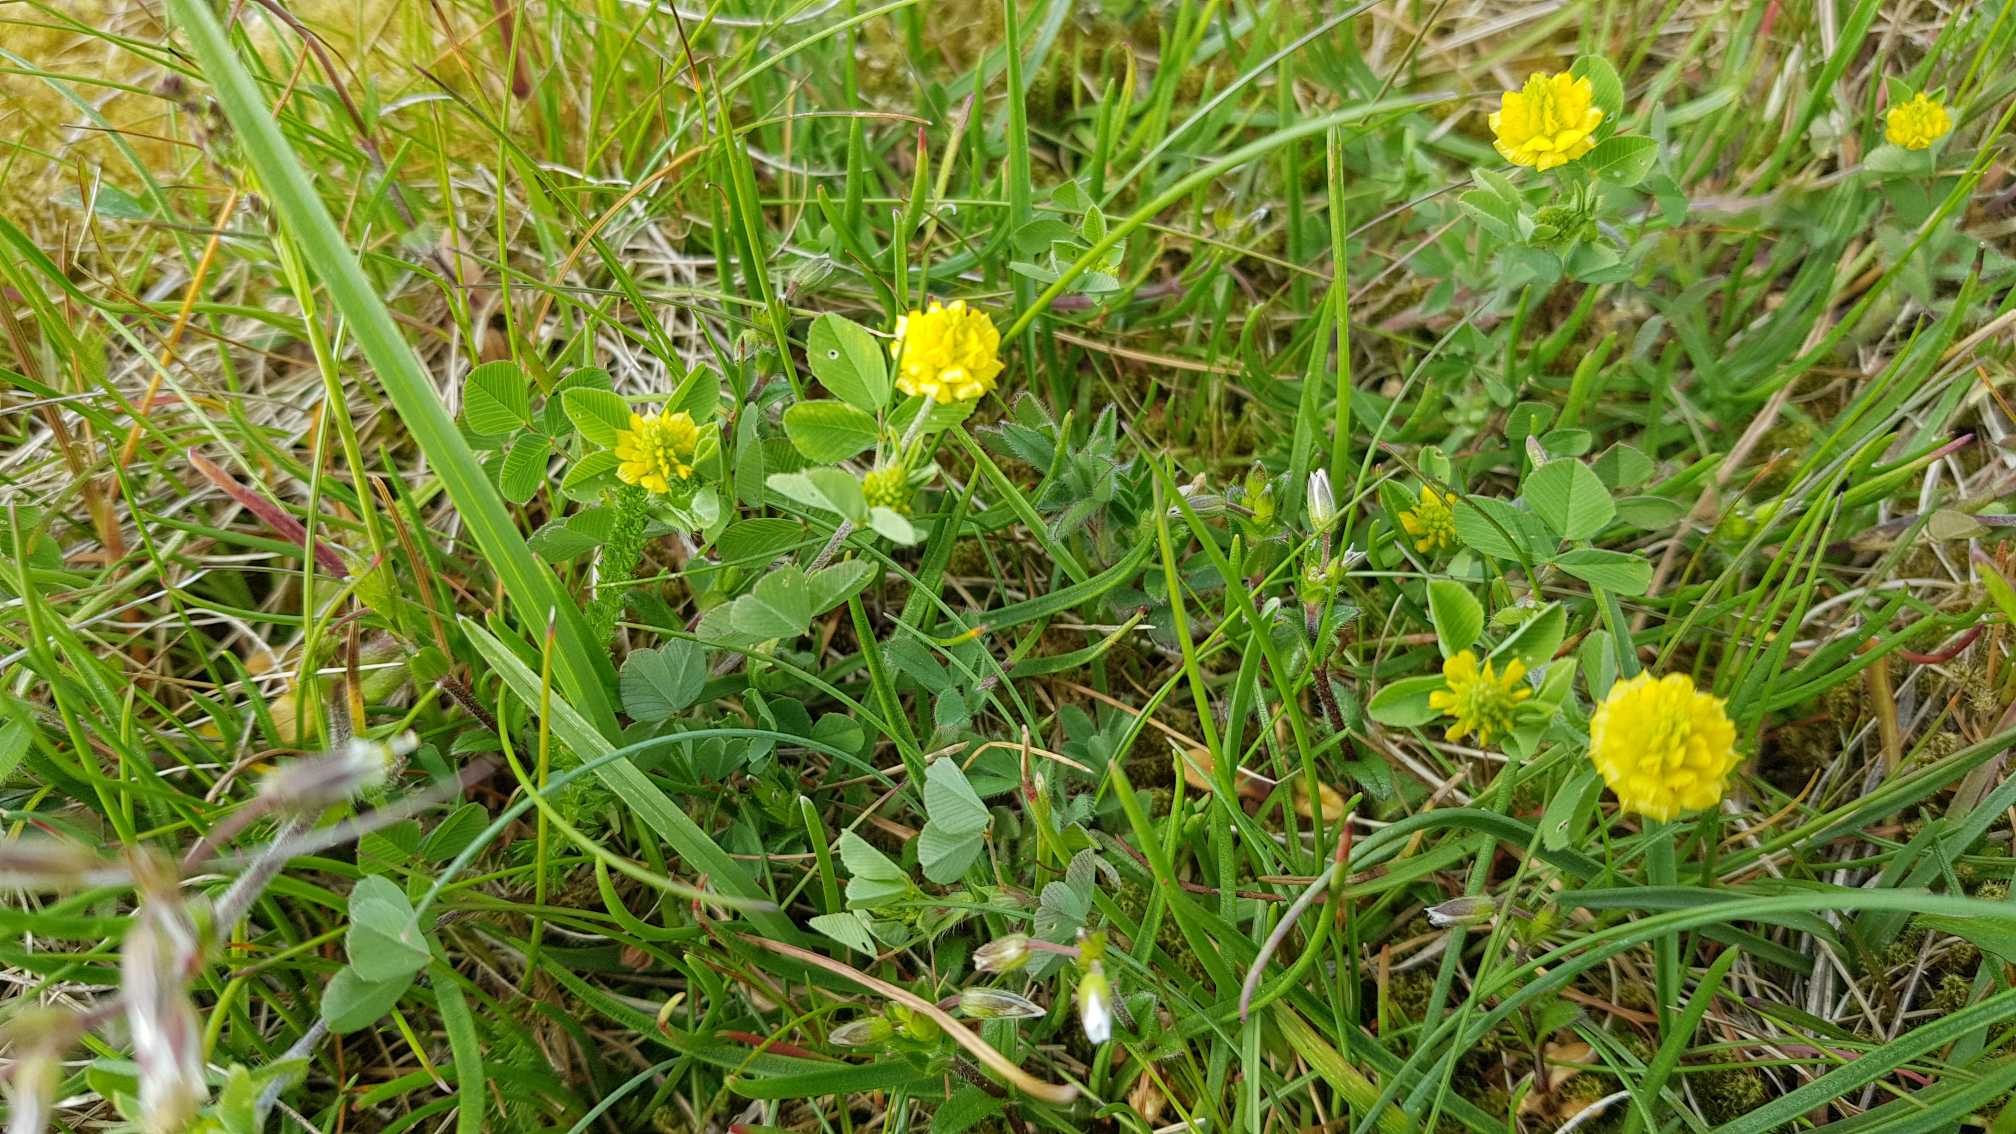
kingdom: Plantae
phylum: Tracheophyta
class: Magnoliopsida
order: Fabales
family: Fabaceae
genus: Trifolium
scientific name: Trifolium campestre
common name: Gul kløver
